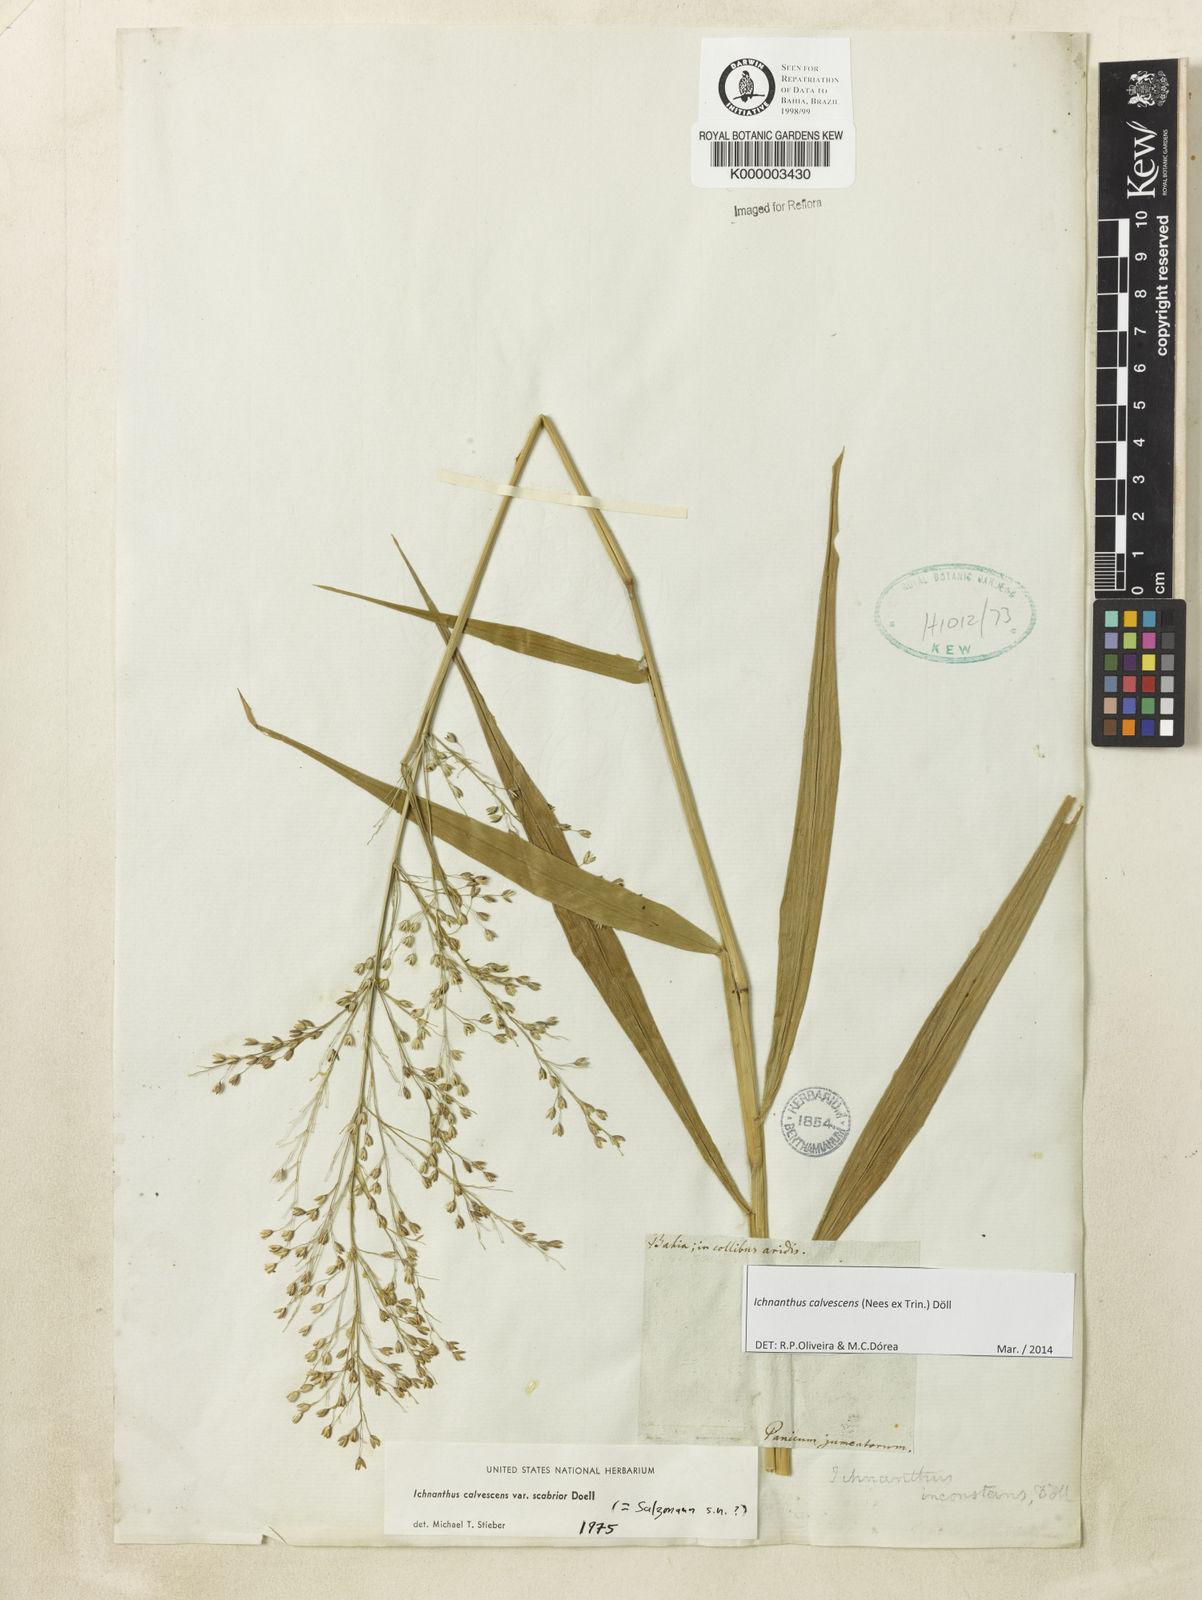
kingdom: Plantae
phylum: Tracheophyta
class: Liliopsida
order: Poales
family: Poaceae
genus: Ichnanthus
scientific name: Ichnanthus
